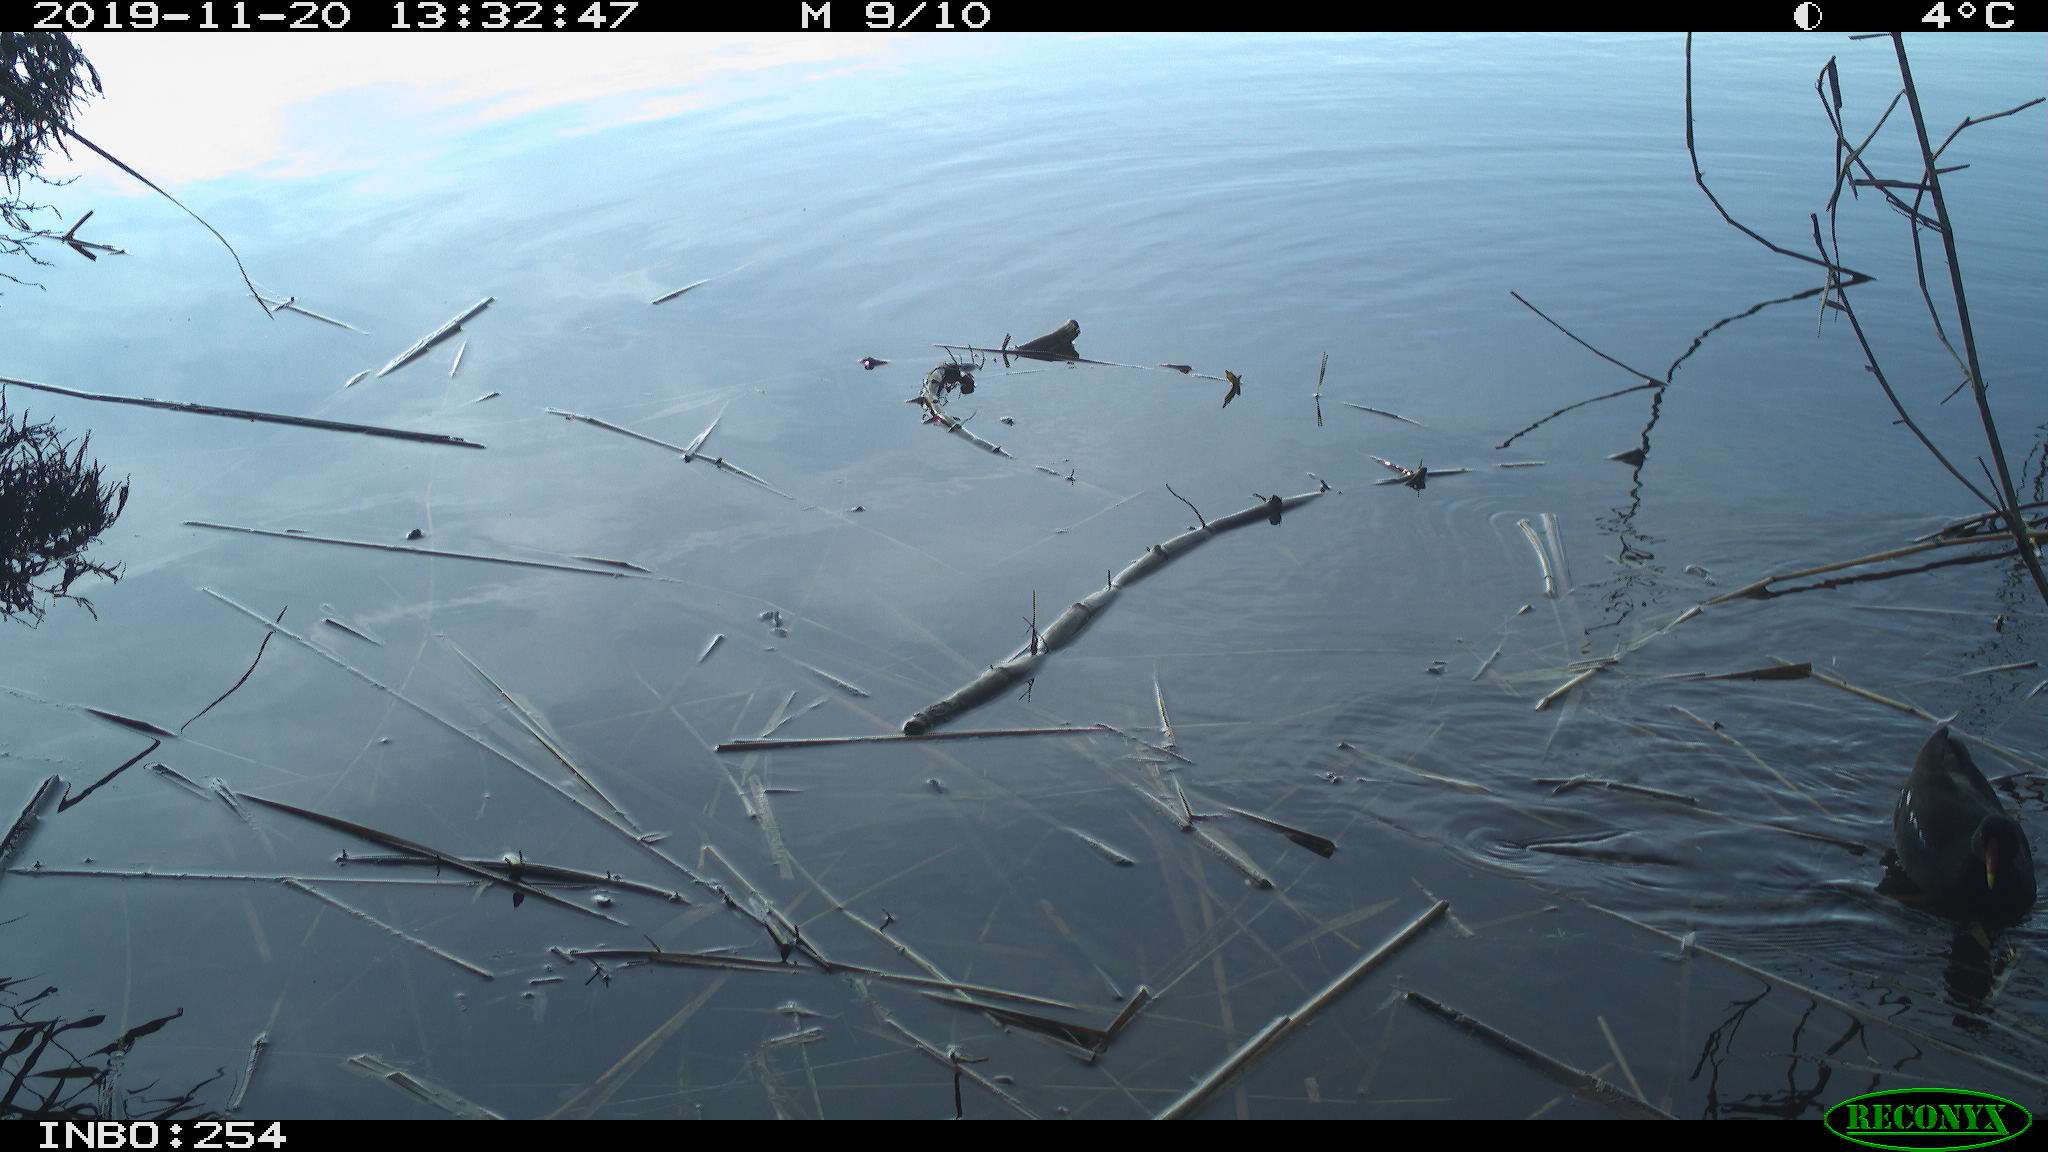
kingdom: Animalia
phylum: Chordata
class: Aves
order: Gruiformes
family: Rallidae
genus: Gallinula
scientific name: Gallinula chloropus
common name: Common moorhen
